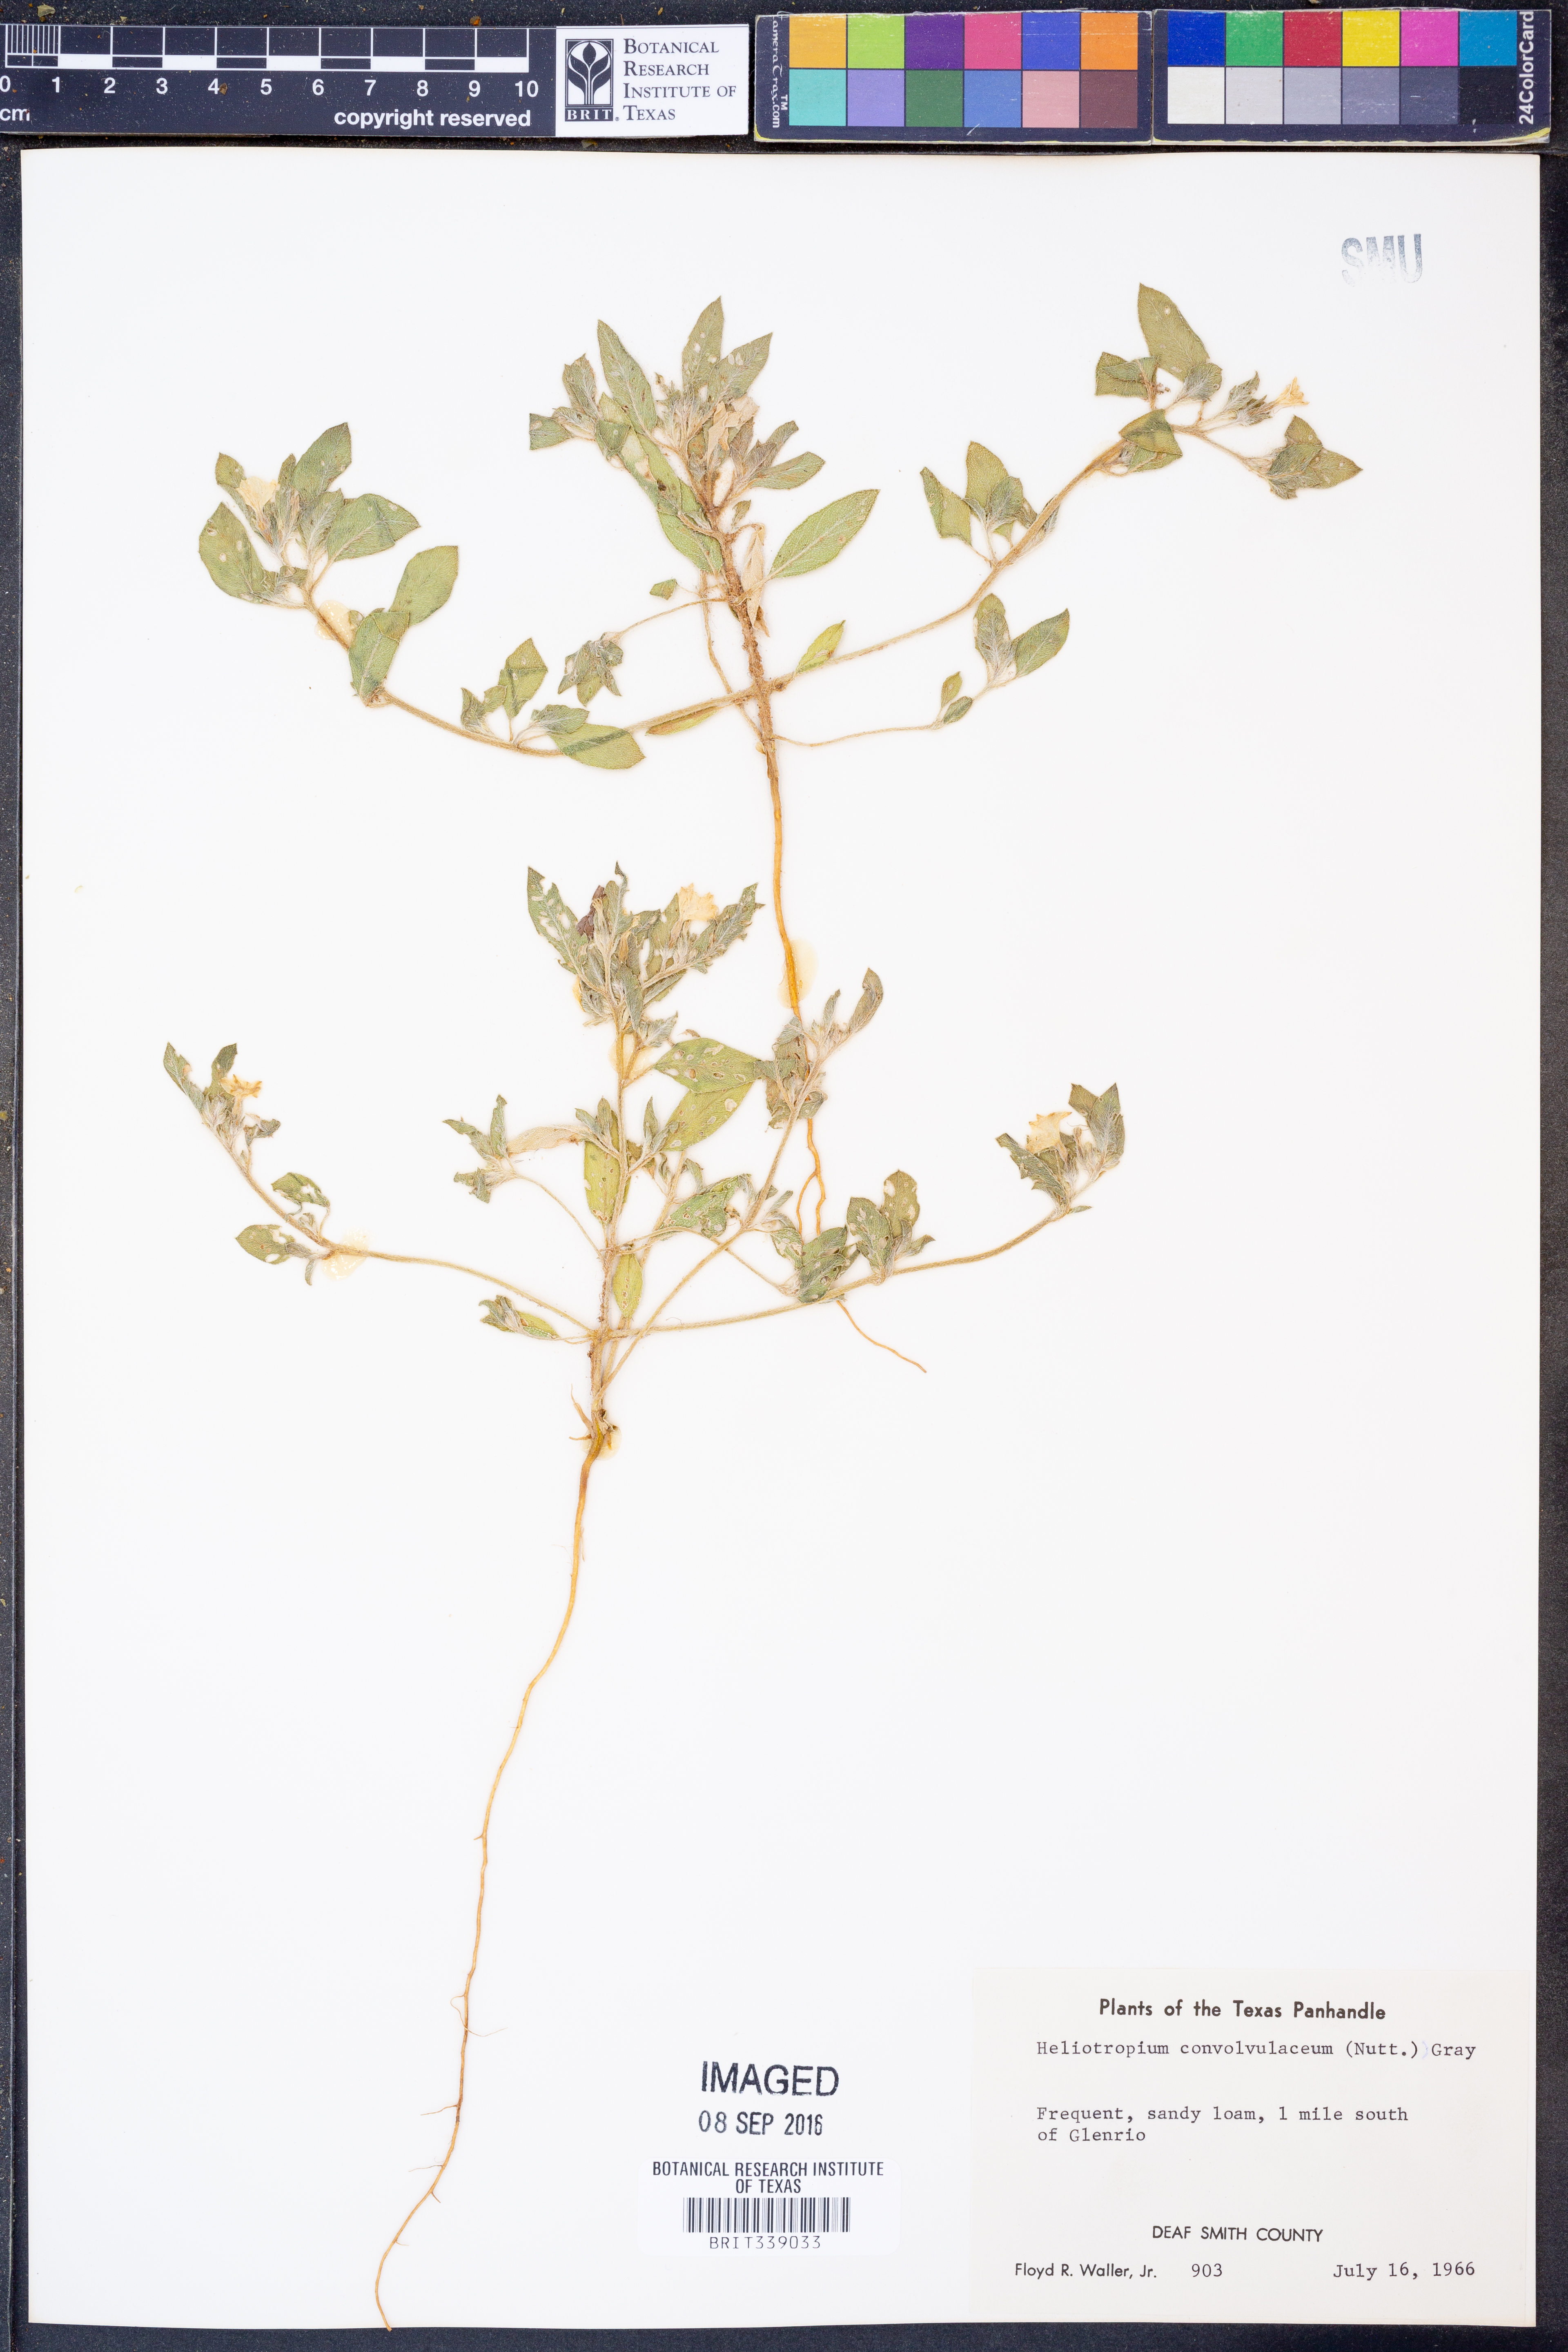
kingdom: Plantae
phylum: Tracheophyta
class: Magnoliopsida
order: Boraginales
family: Heliotropiaceae
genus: Euploca
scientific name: Euploca convolvulacea
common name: Bindweed heliotrope
